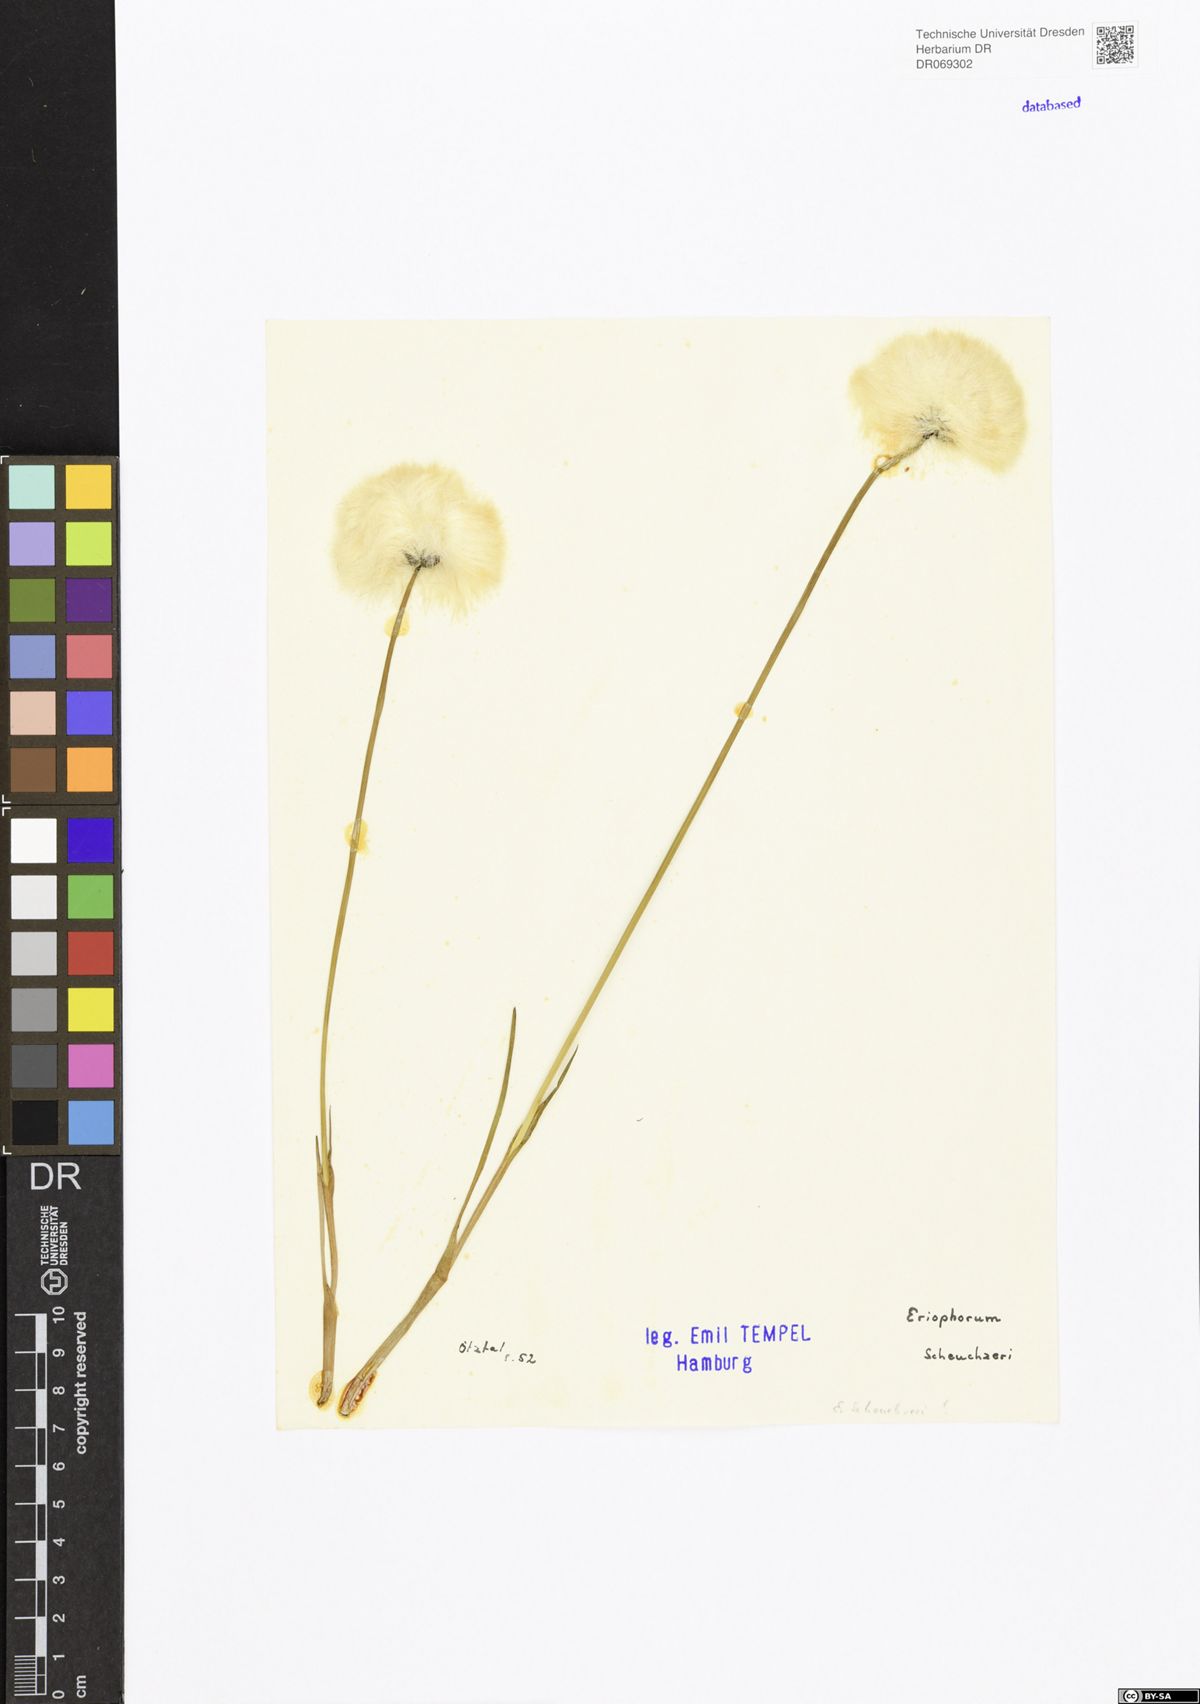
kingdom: Plantae
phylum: Tracheophyta
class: Liliopsida
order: Poales
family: Cyperaceae
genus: Eriophorum
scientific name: Eriophorum scheuchzeri
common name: Scheuchzer's cottongrass
